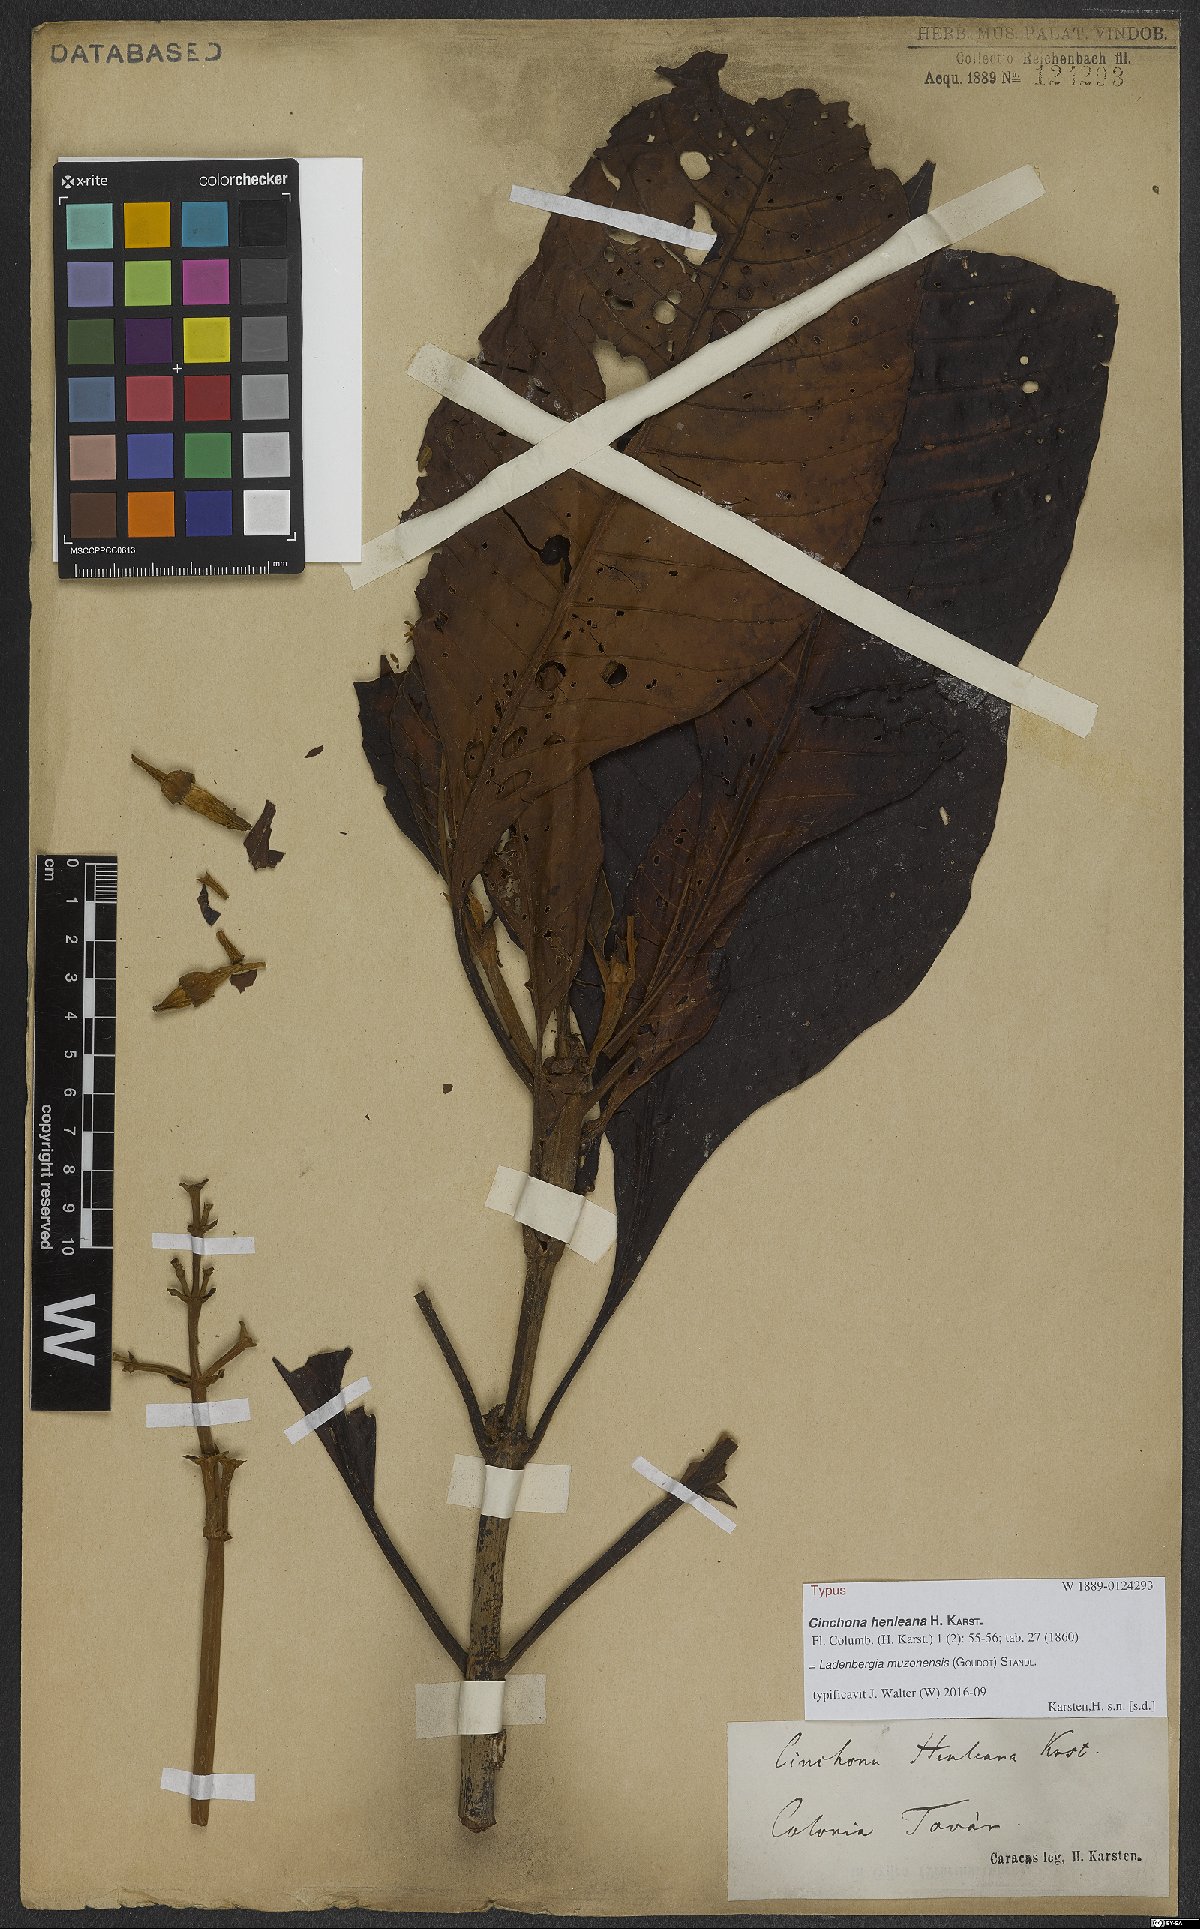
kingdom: Plantae
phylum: Tracheophyta
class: Magnoliopsida
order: Gentianales
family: Rubiaceae
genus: Ladenbergia
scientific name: Ladenbergia muzonensis
